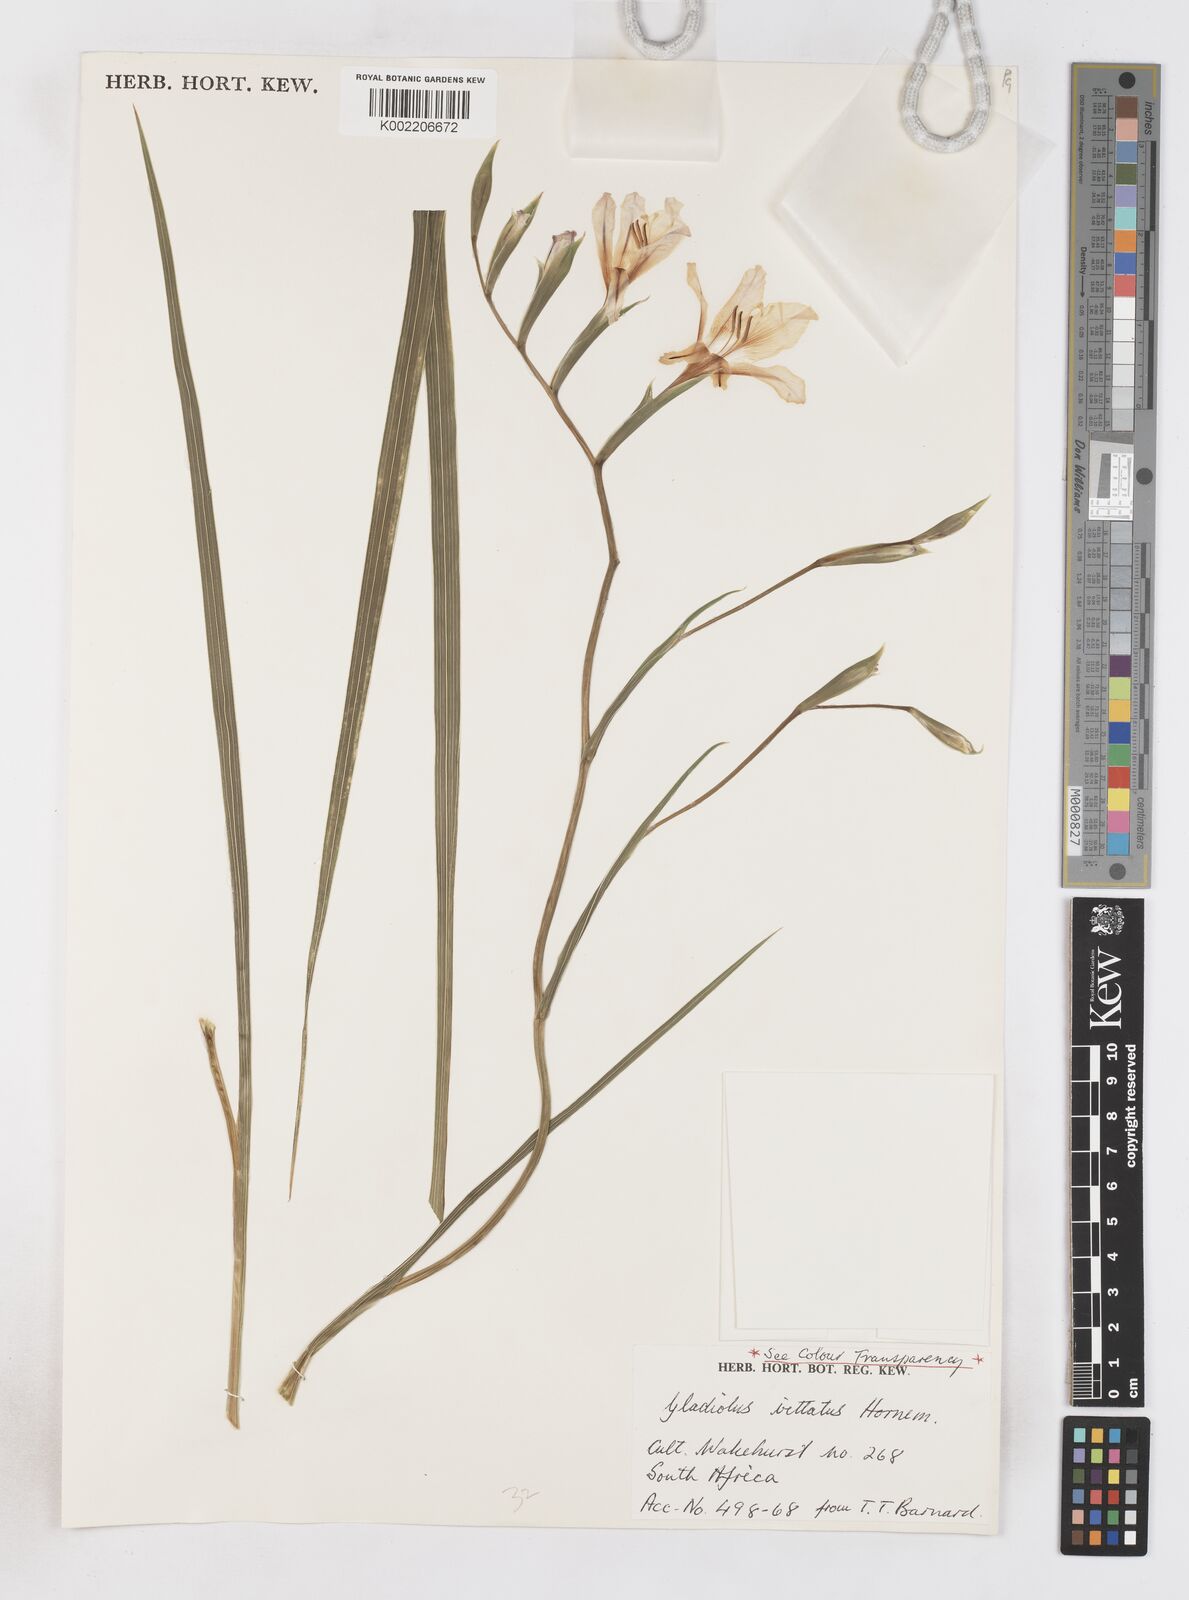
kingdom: Plantae
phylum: Tracheophyta
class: Liliopsida
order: Asparagales
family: Iridaceae
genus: Gladiolus
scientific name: Gladiolus grandiflorus
